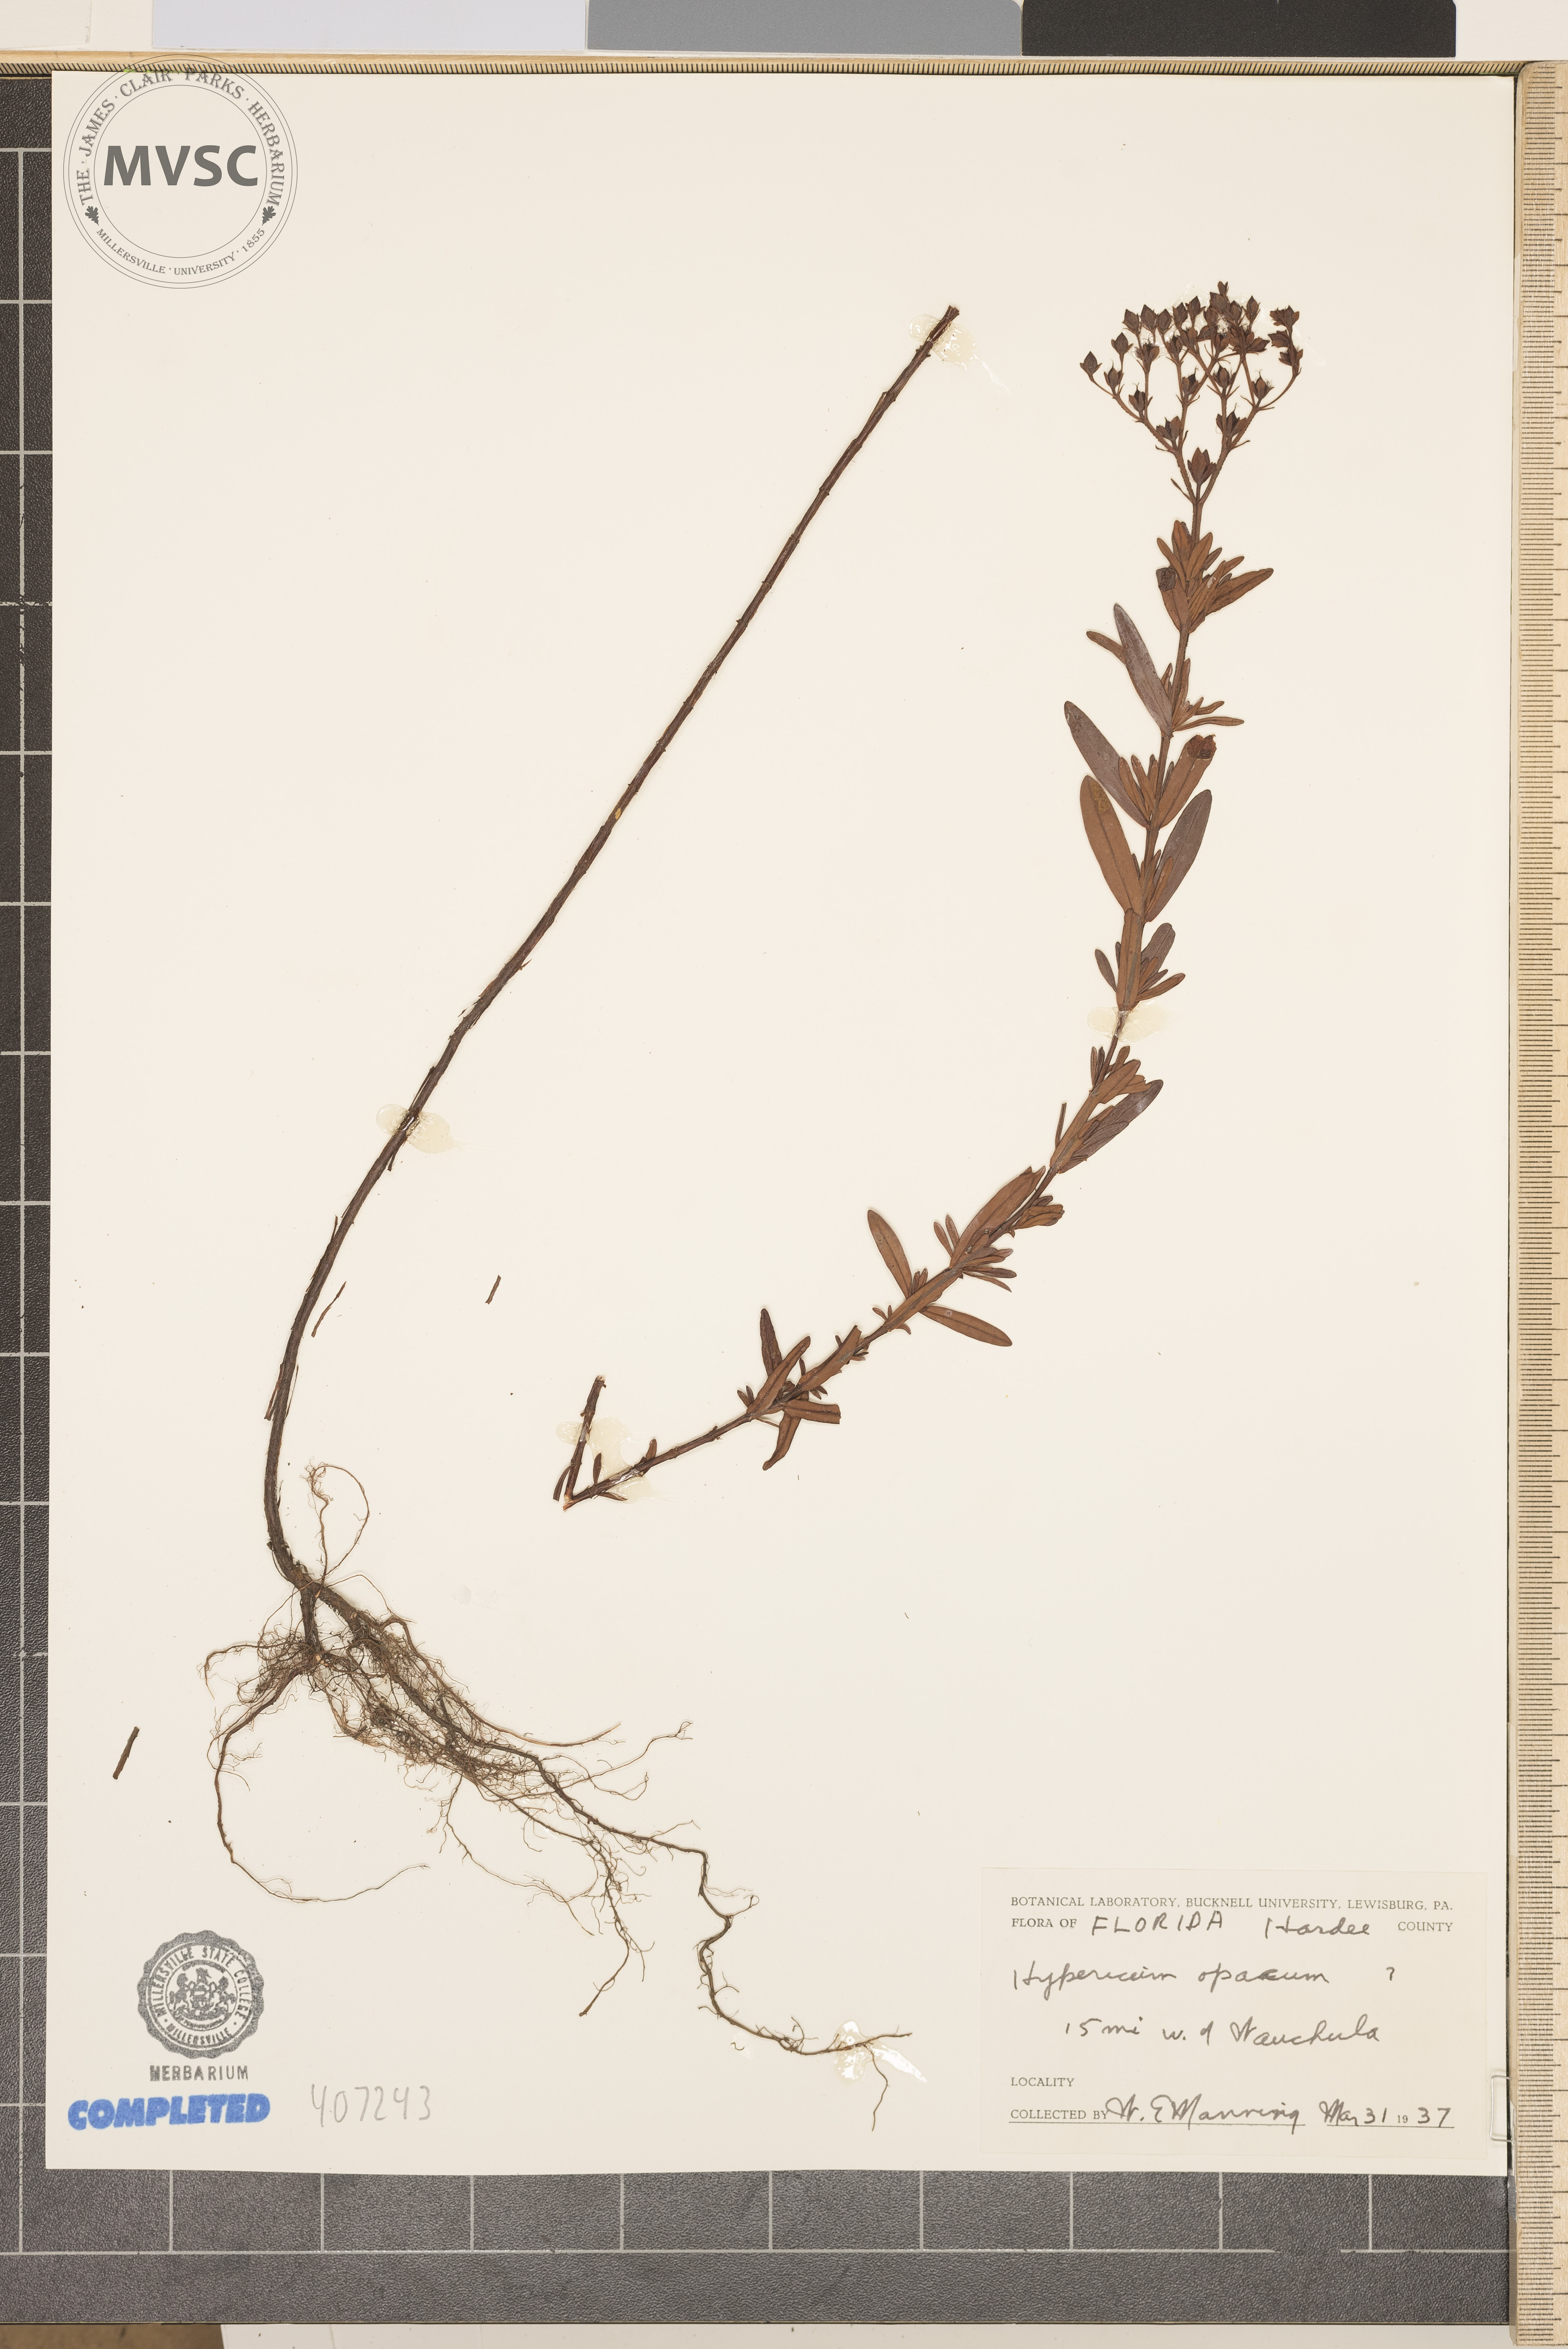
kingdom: Plantae
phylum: Tracheophyta
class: Magnoliopsida
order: Malpighiales
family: Hypericaceae
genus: Hypericum
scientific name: Hypericum opacum
